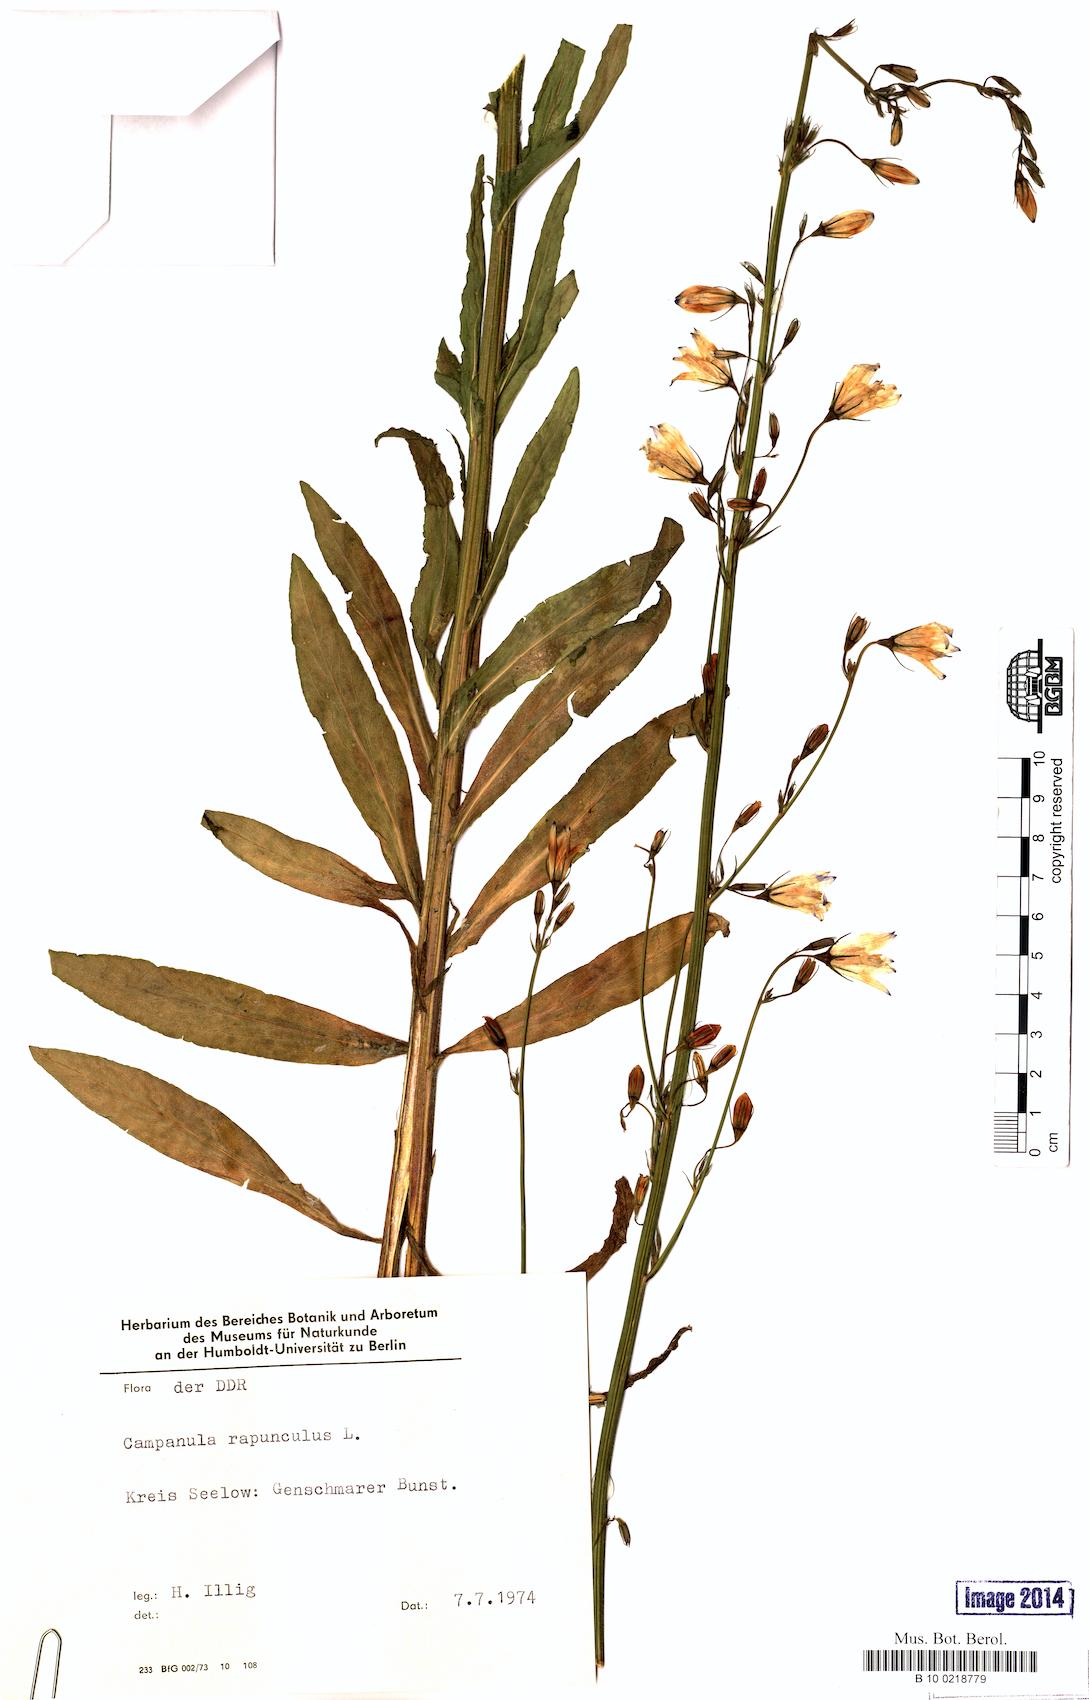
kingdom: Plantae
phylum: Tracheophyta
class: Magnoliopsida
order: Asterales
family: Campanulaceae
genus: Campanula
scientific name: Campanula rapunculus
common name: Rampion bellflower
